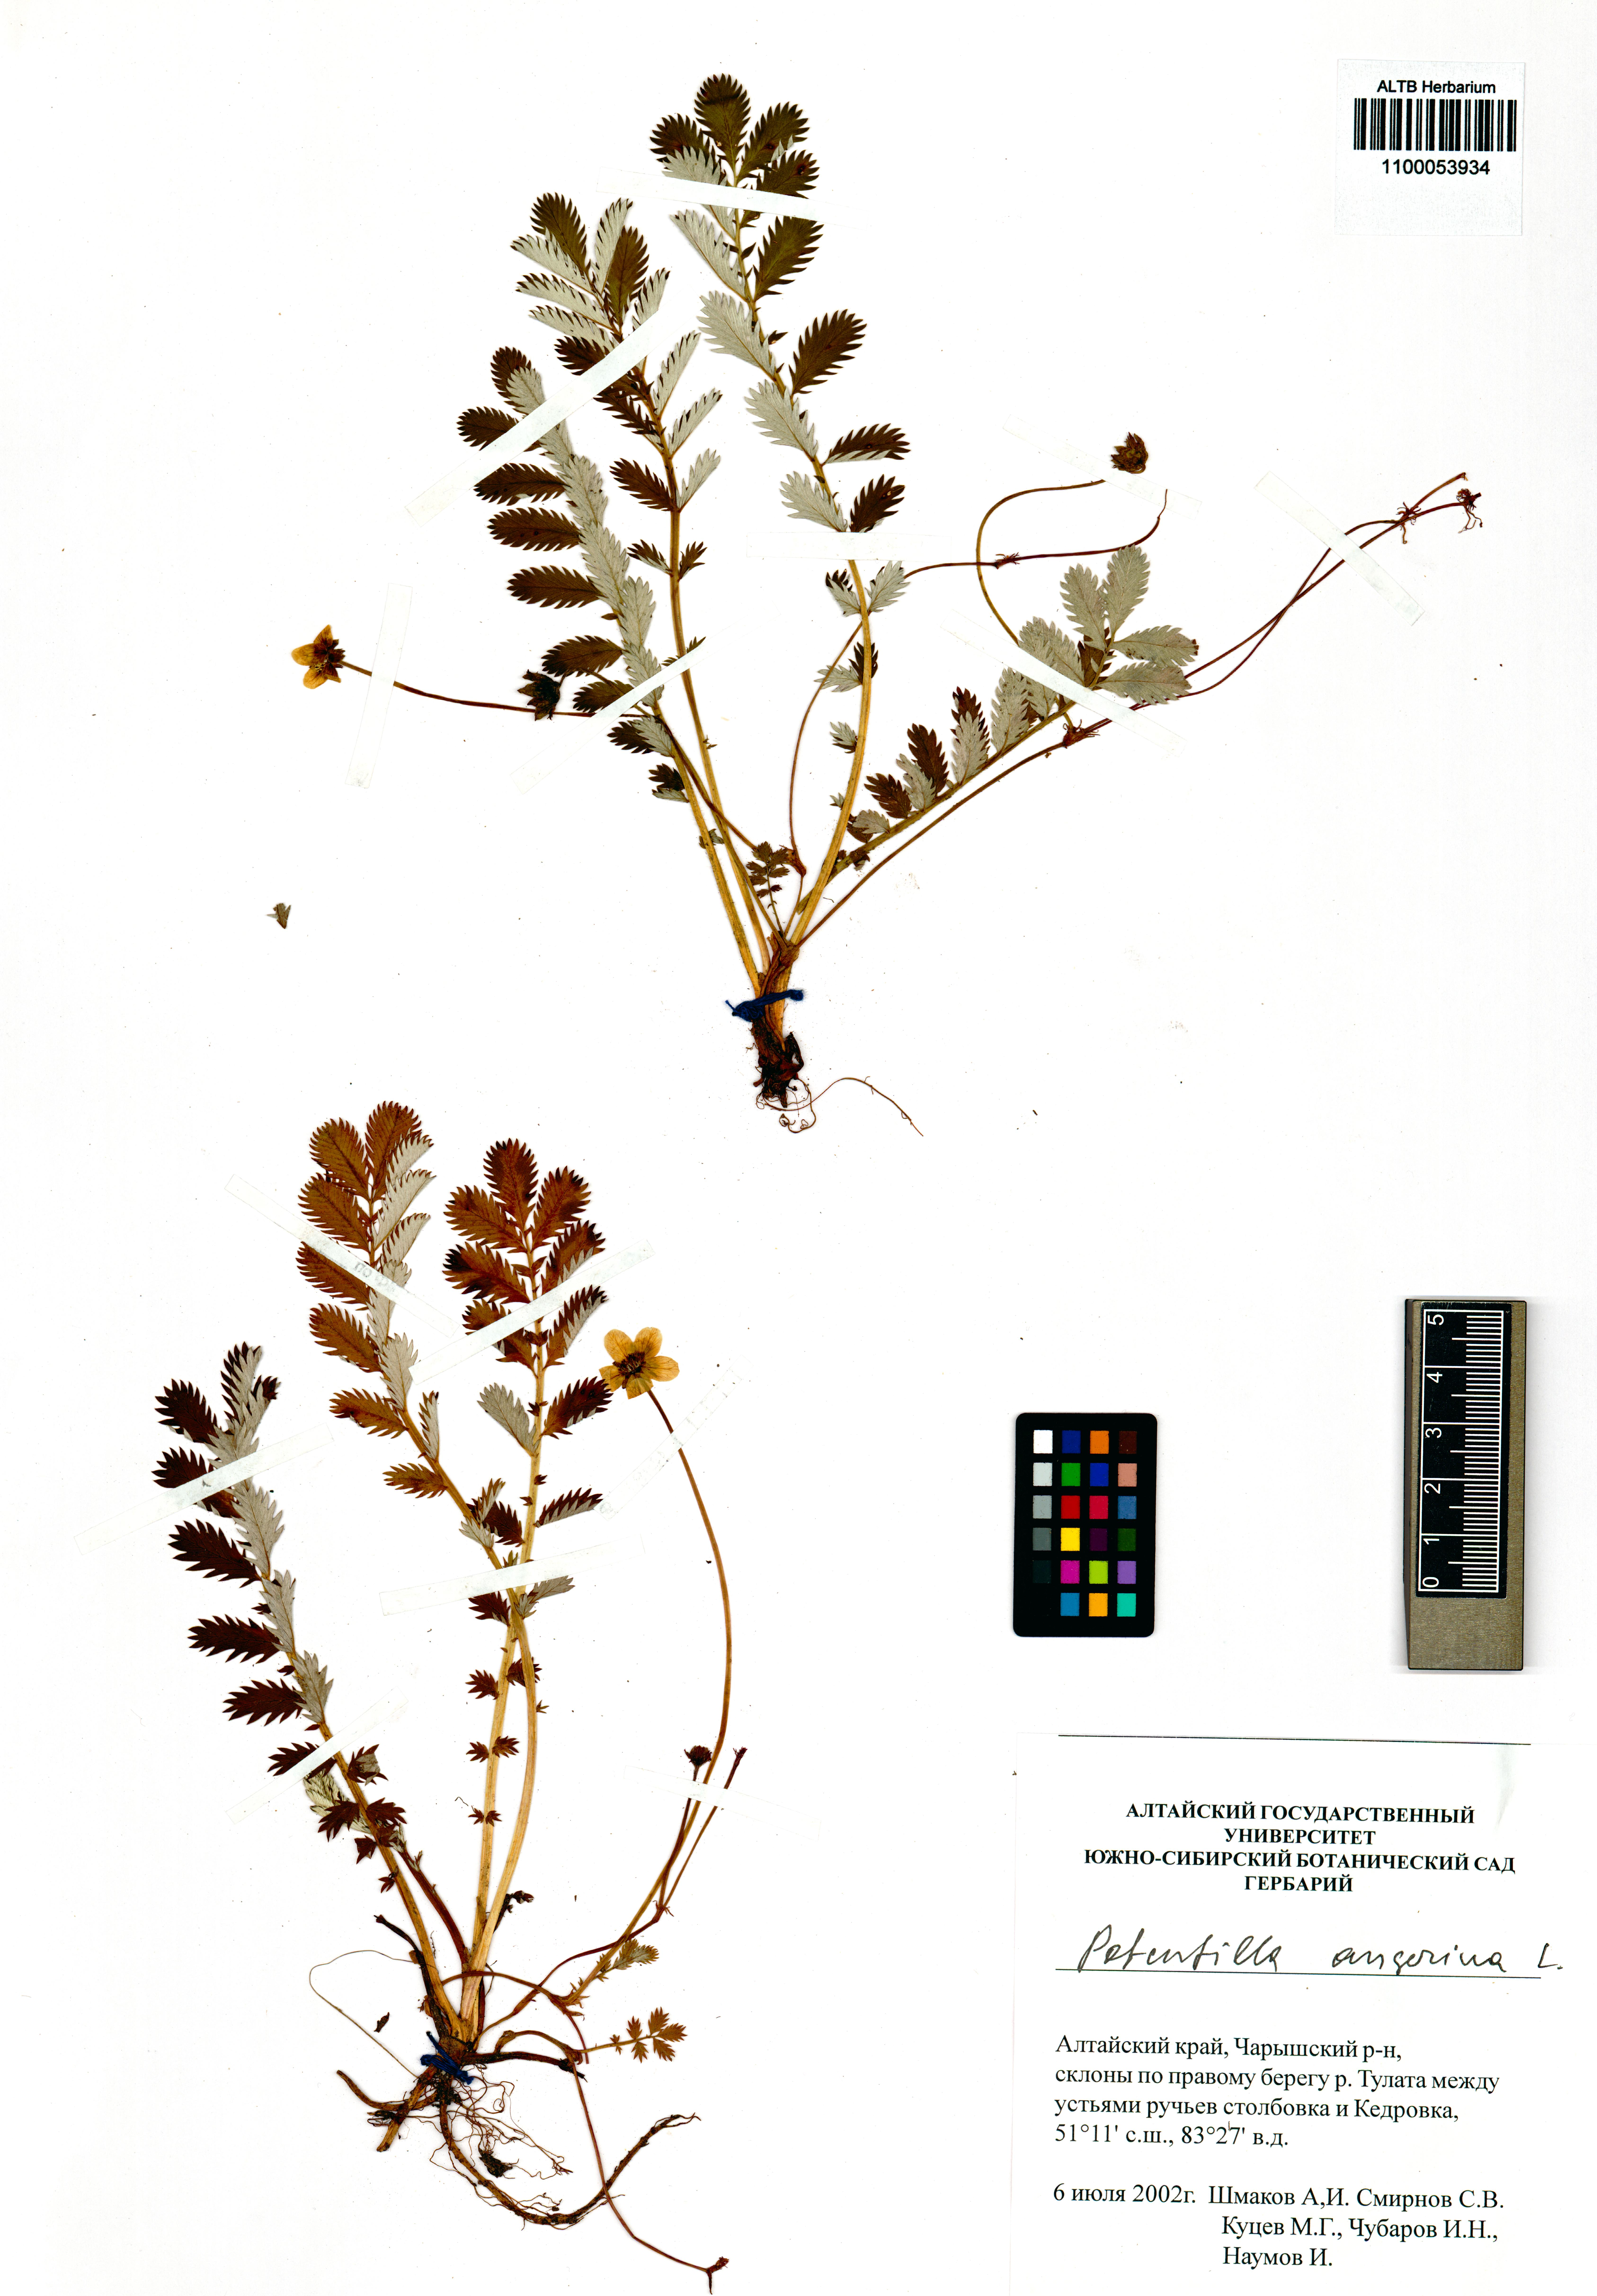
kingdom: Plantae
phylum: Tracheophyta
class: Magnoliopsida
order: Rosales
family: Rosaceae
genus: Argentina
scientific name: Argentina anserina
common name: Common silverweed
